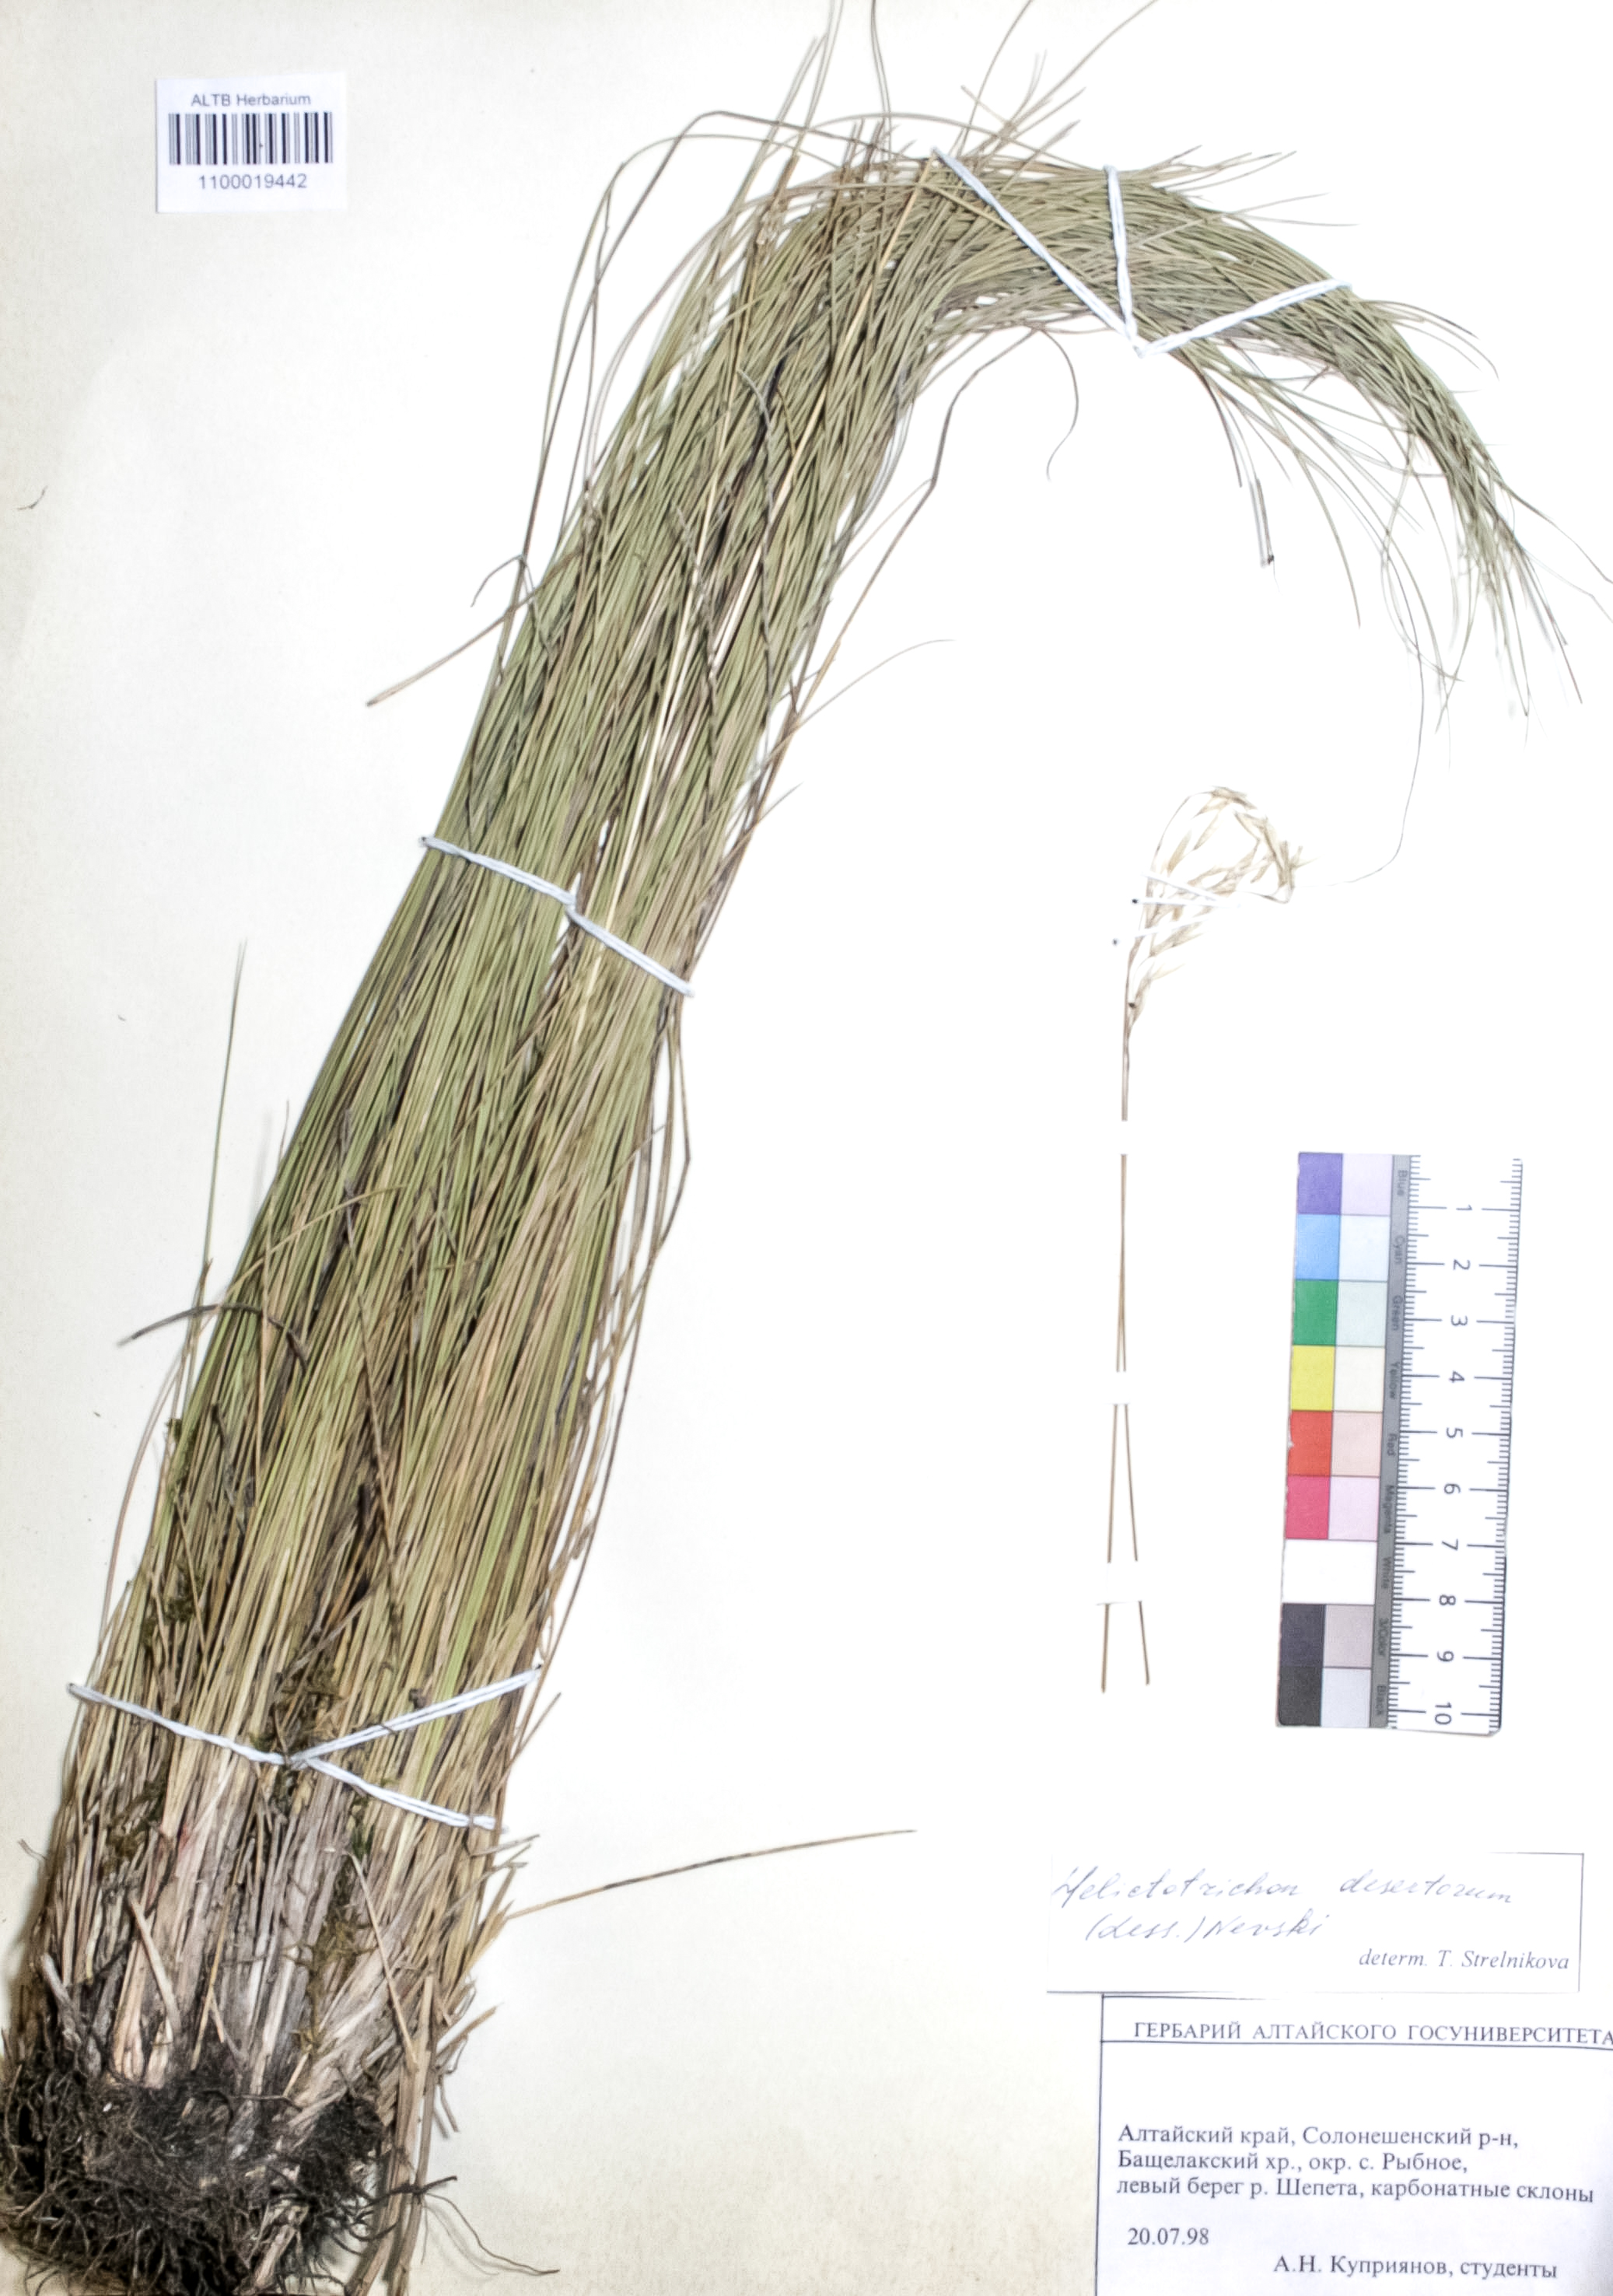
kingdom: Plantae
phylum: Tracheophyta
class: Liliopsida
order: Poales
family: Poaceae
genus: Helictotrichon
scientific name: Helictotrichon desertorum
